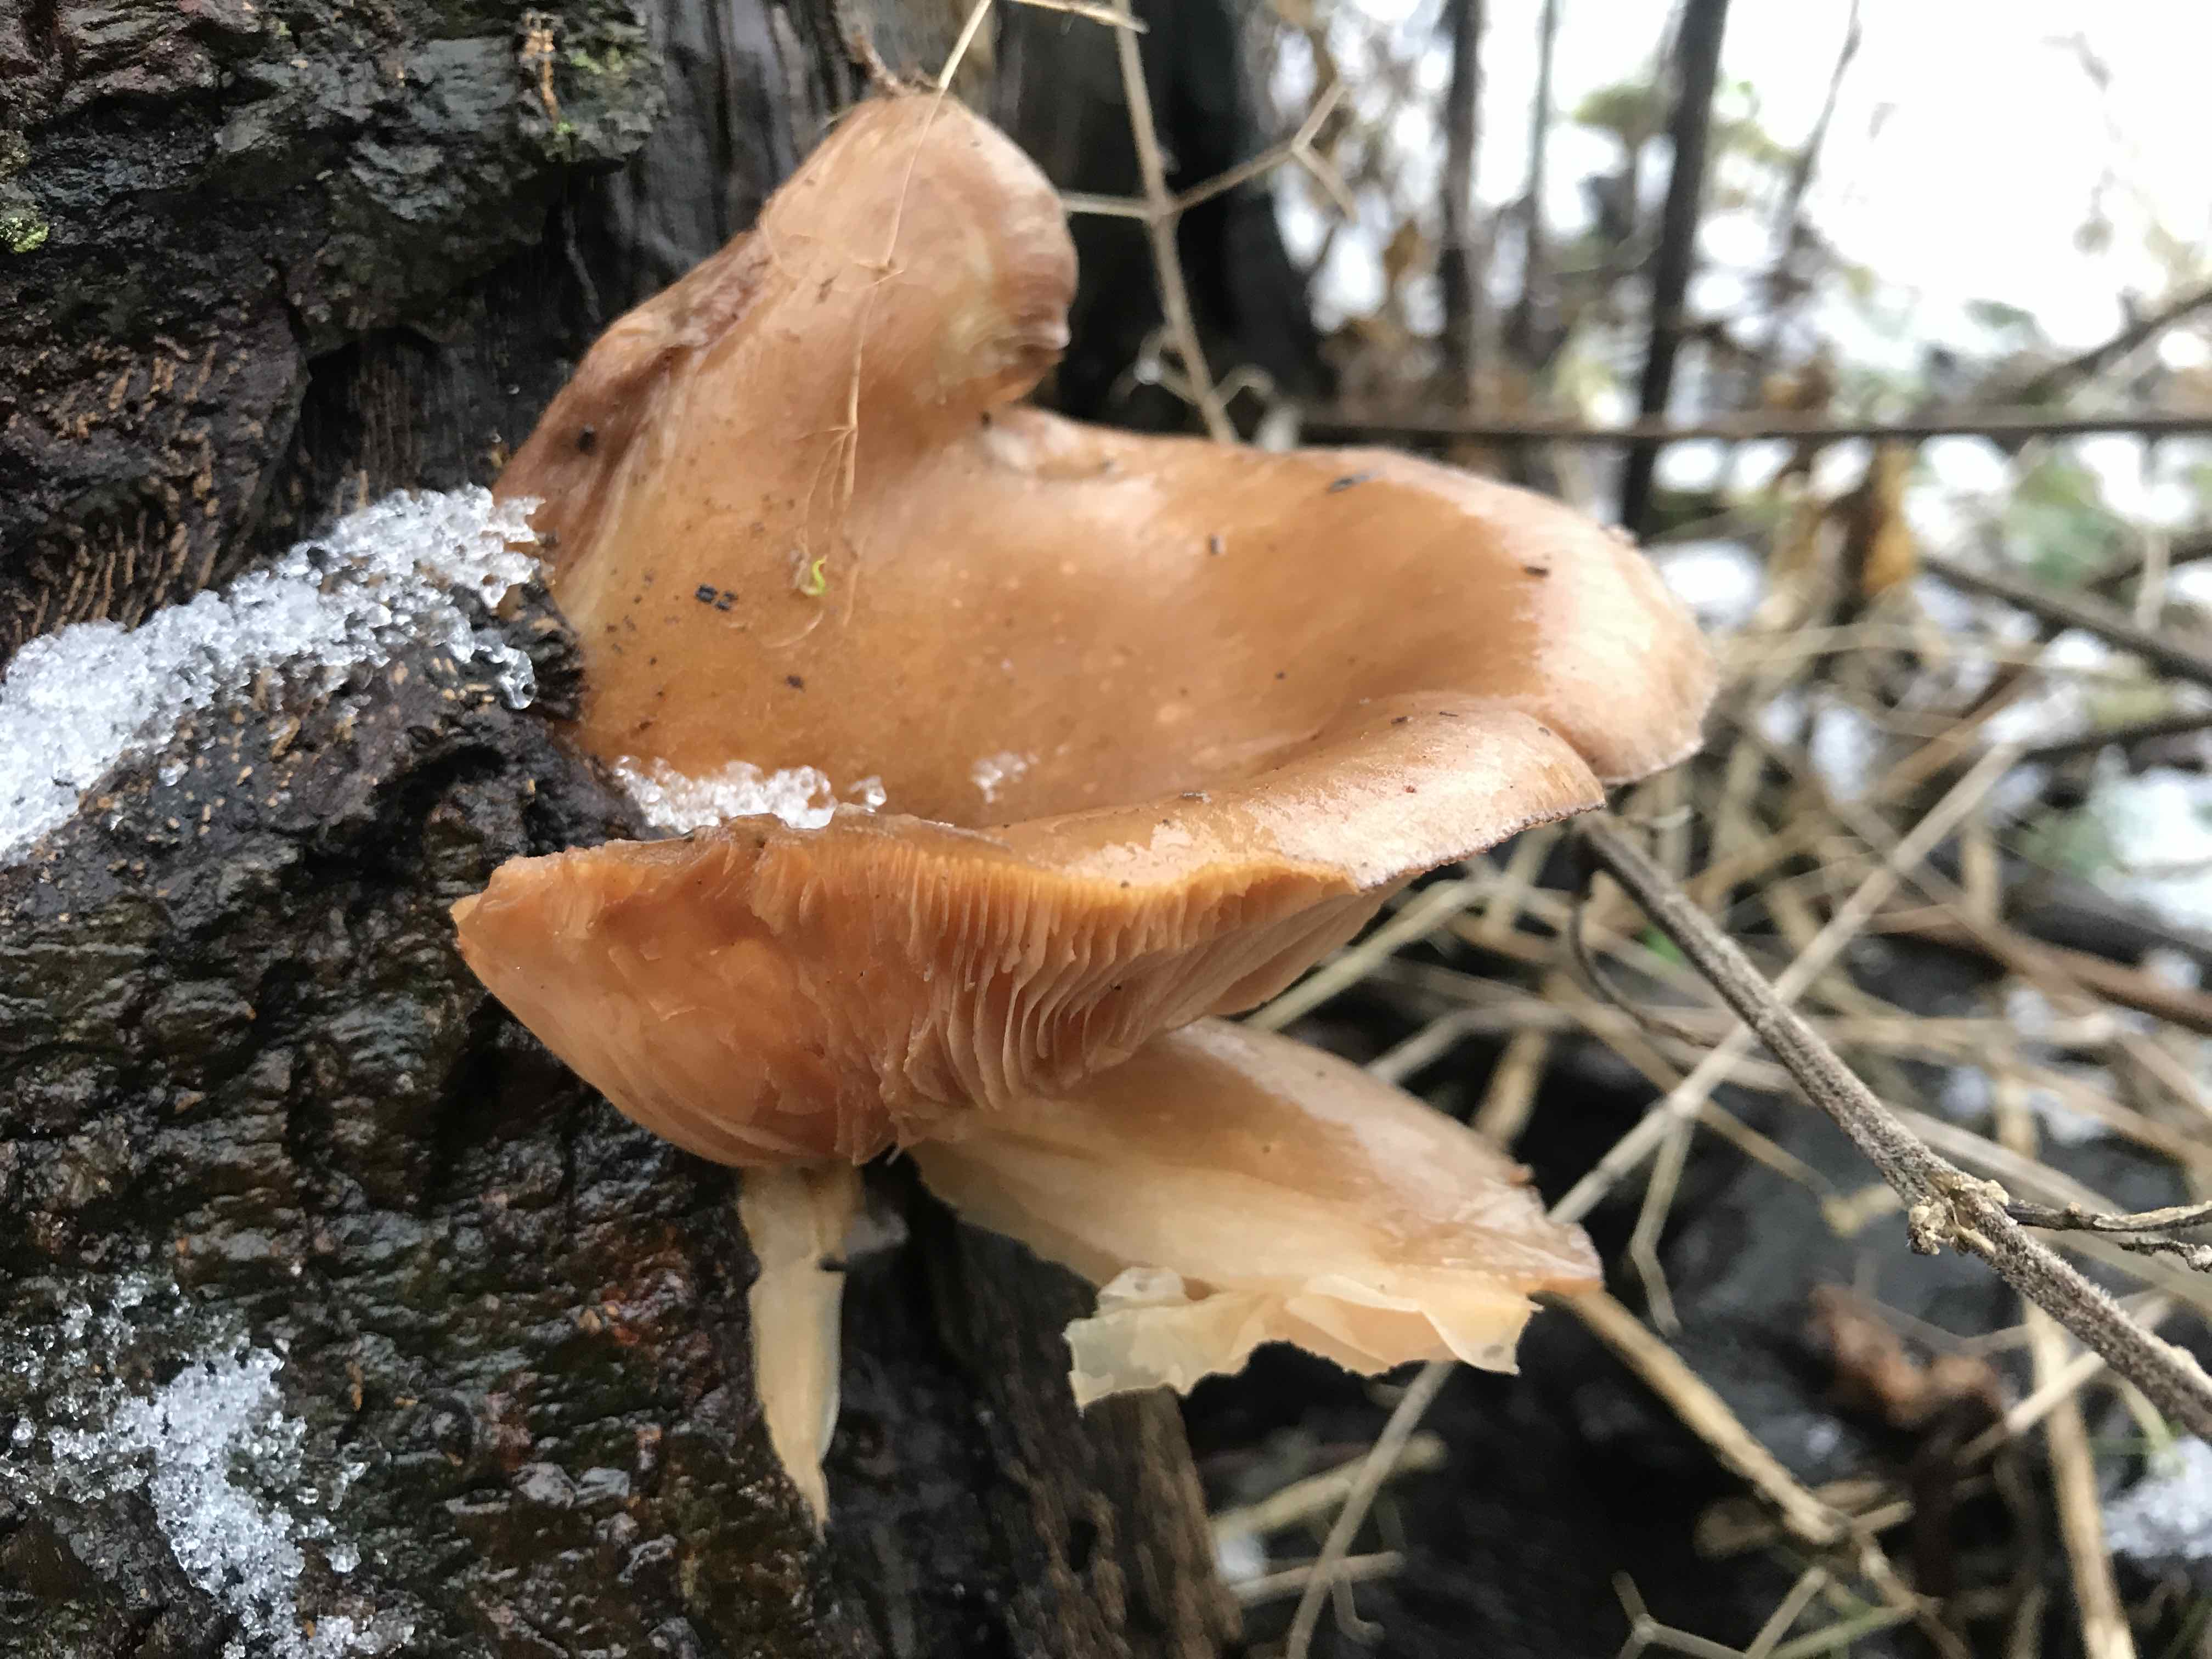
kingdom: Fungi
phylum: Basidiomycota
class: Agaricomycetes
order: Agaricales
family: Sarcomyxaceae
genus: Sarcomyxa
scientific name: Sarcomyxa serotina
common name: gummihat
